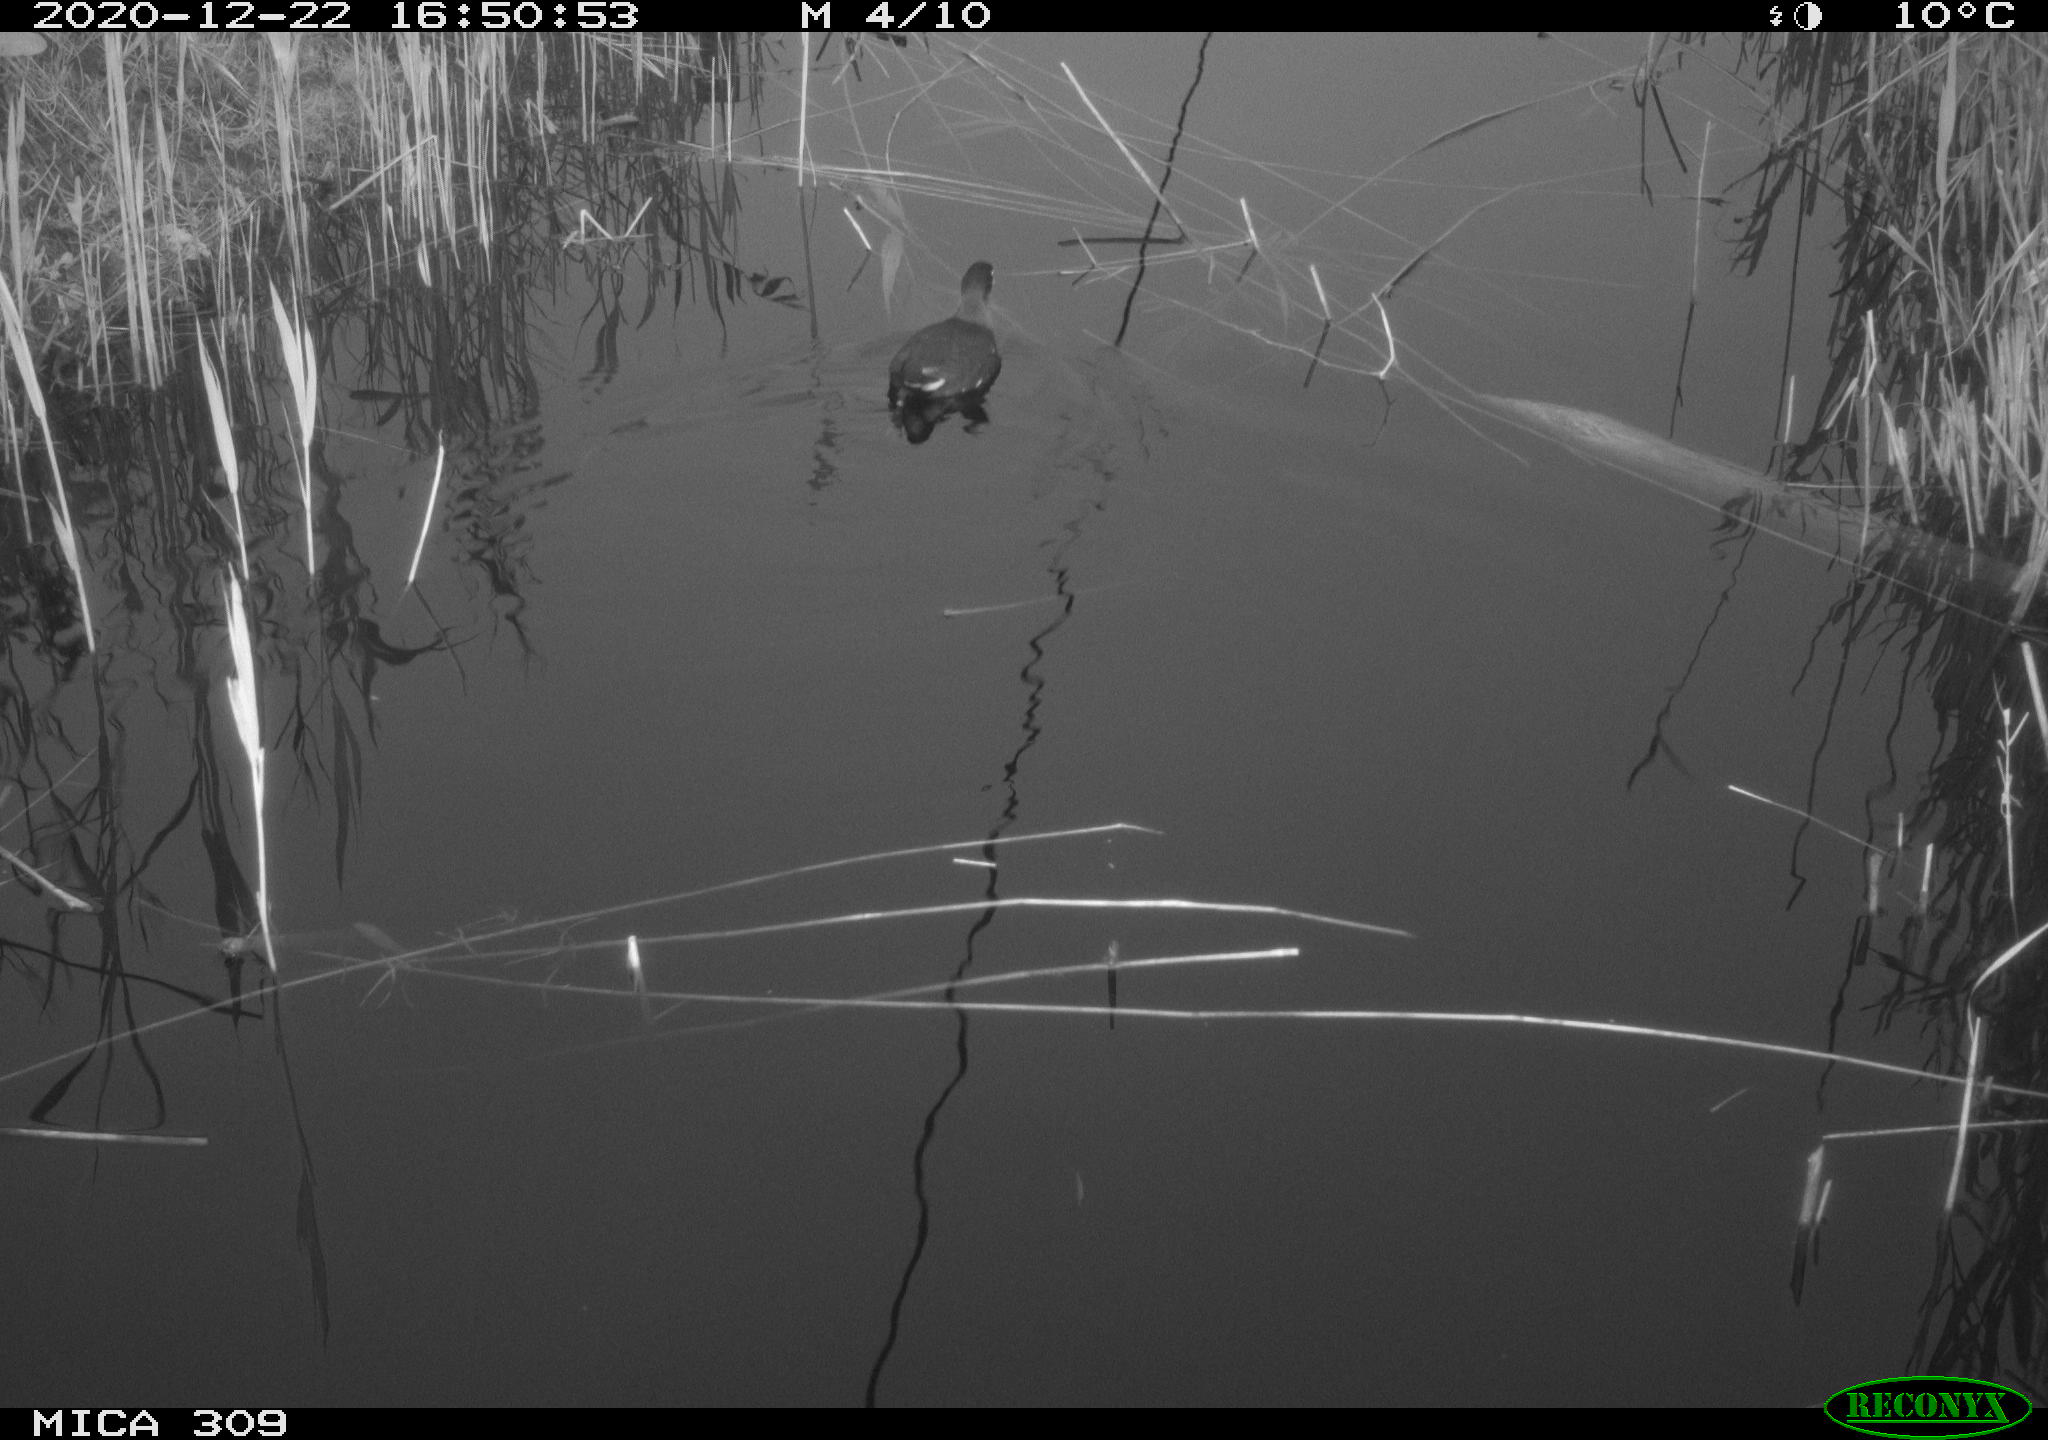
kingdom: Animalia
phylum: Chordata
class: Aves
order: Gruiformes
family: Rallidae
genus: Gallinula
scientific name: Gallinula chloropus
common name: Common moorhen
